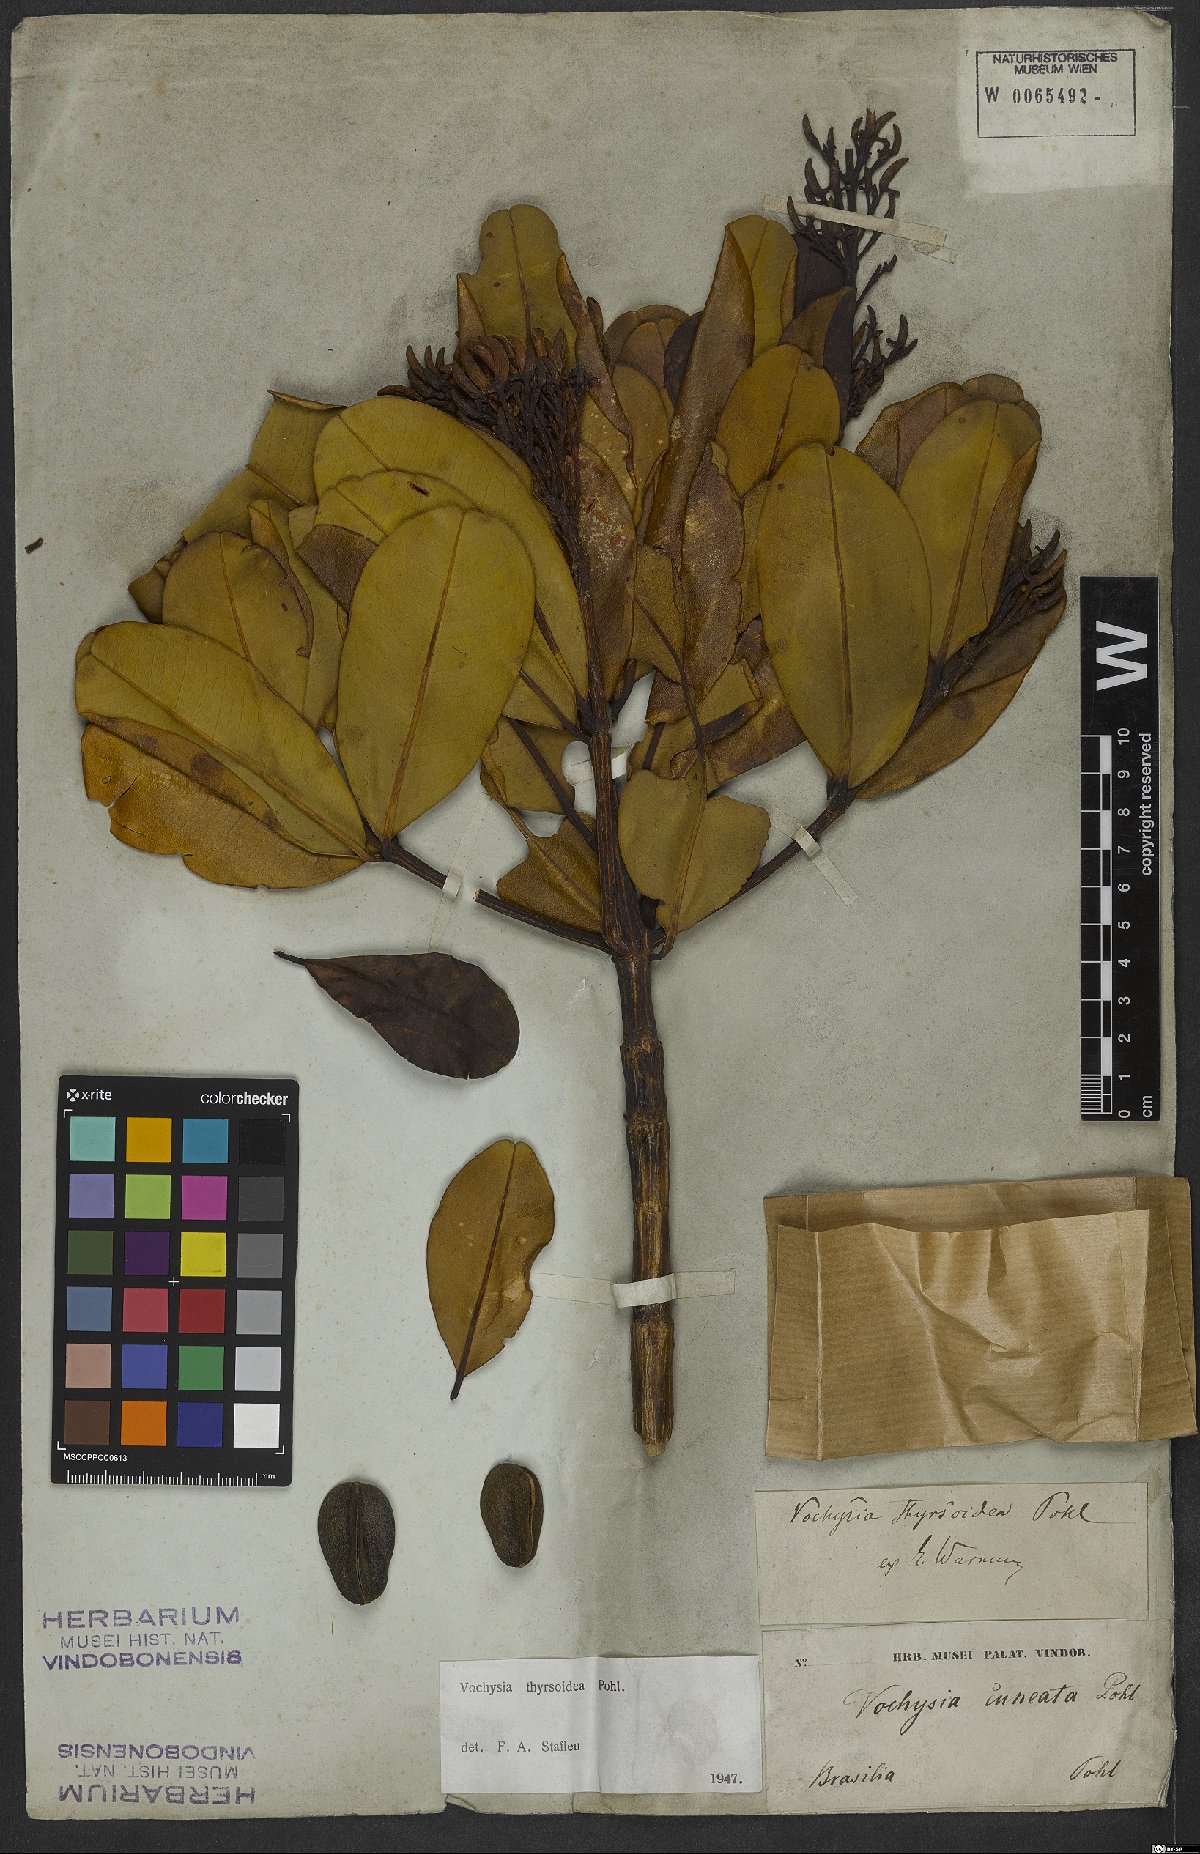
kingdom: Plantae
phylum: Tracheophyta
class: Magnoliopsida
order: Myrtales
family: Vochysiaceae
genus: Vochysia
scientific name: Vochysia thyrsoidea
